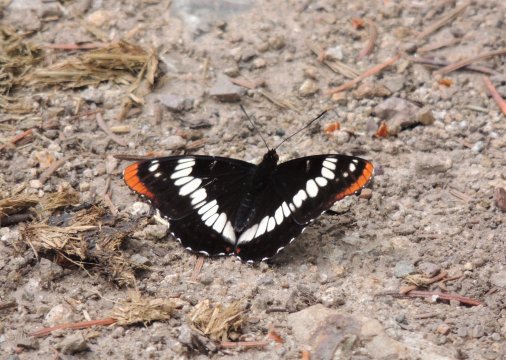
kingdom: Animalia
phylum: Arthropoda
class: Insecta
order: Lepidoptera
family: Nymphalidae
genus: Limenitis
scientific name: Limenitis lorquini
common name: Lorquin's Admiral
